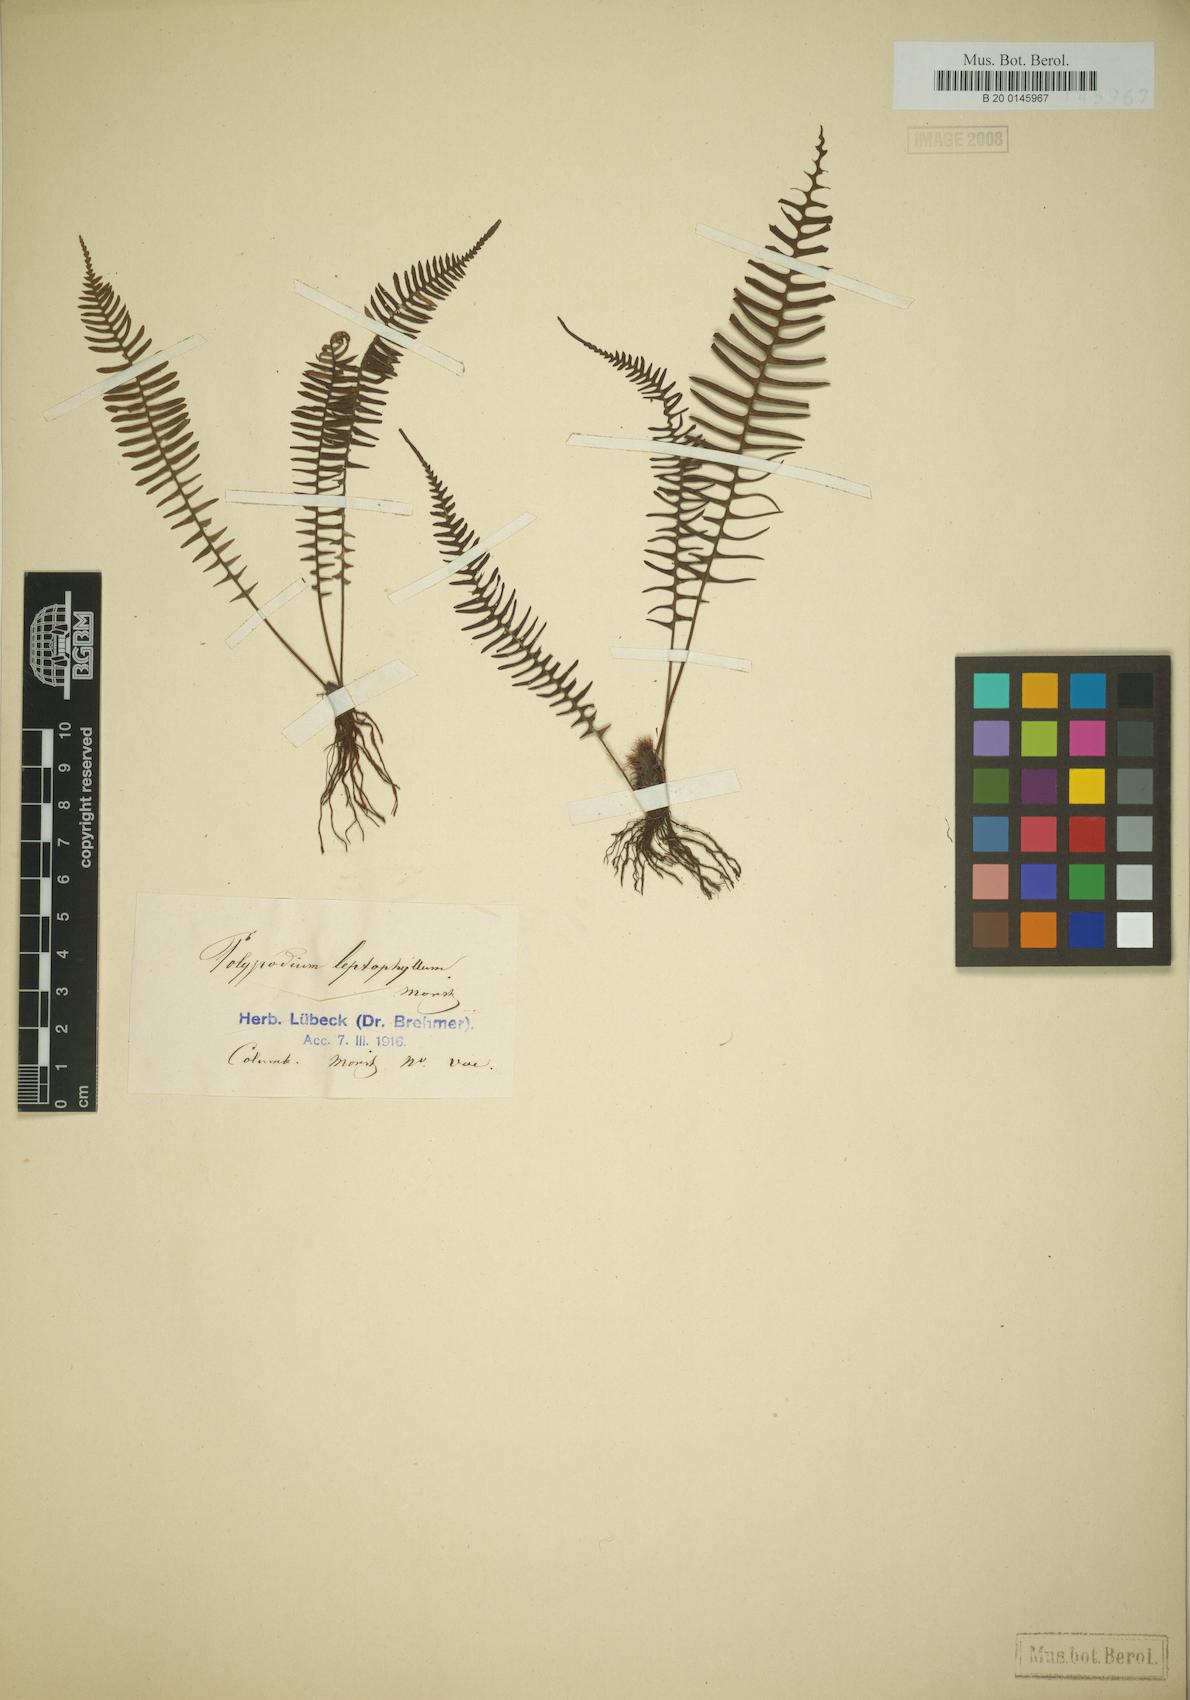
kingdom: Plantae
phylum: Tracheophyta
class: Polypodiopsida
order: Polypodiales
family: Polypodiaceae
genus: Melpomene
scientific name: Melpomene pilosissima
